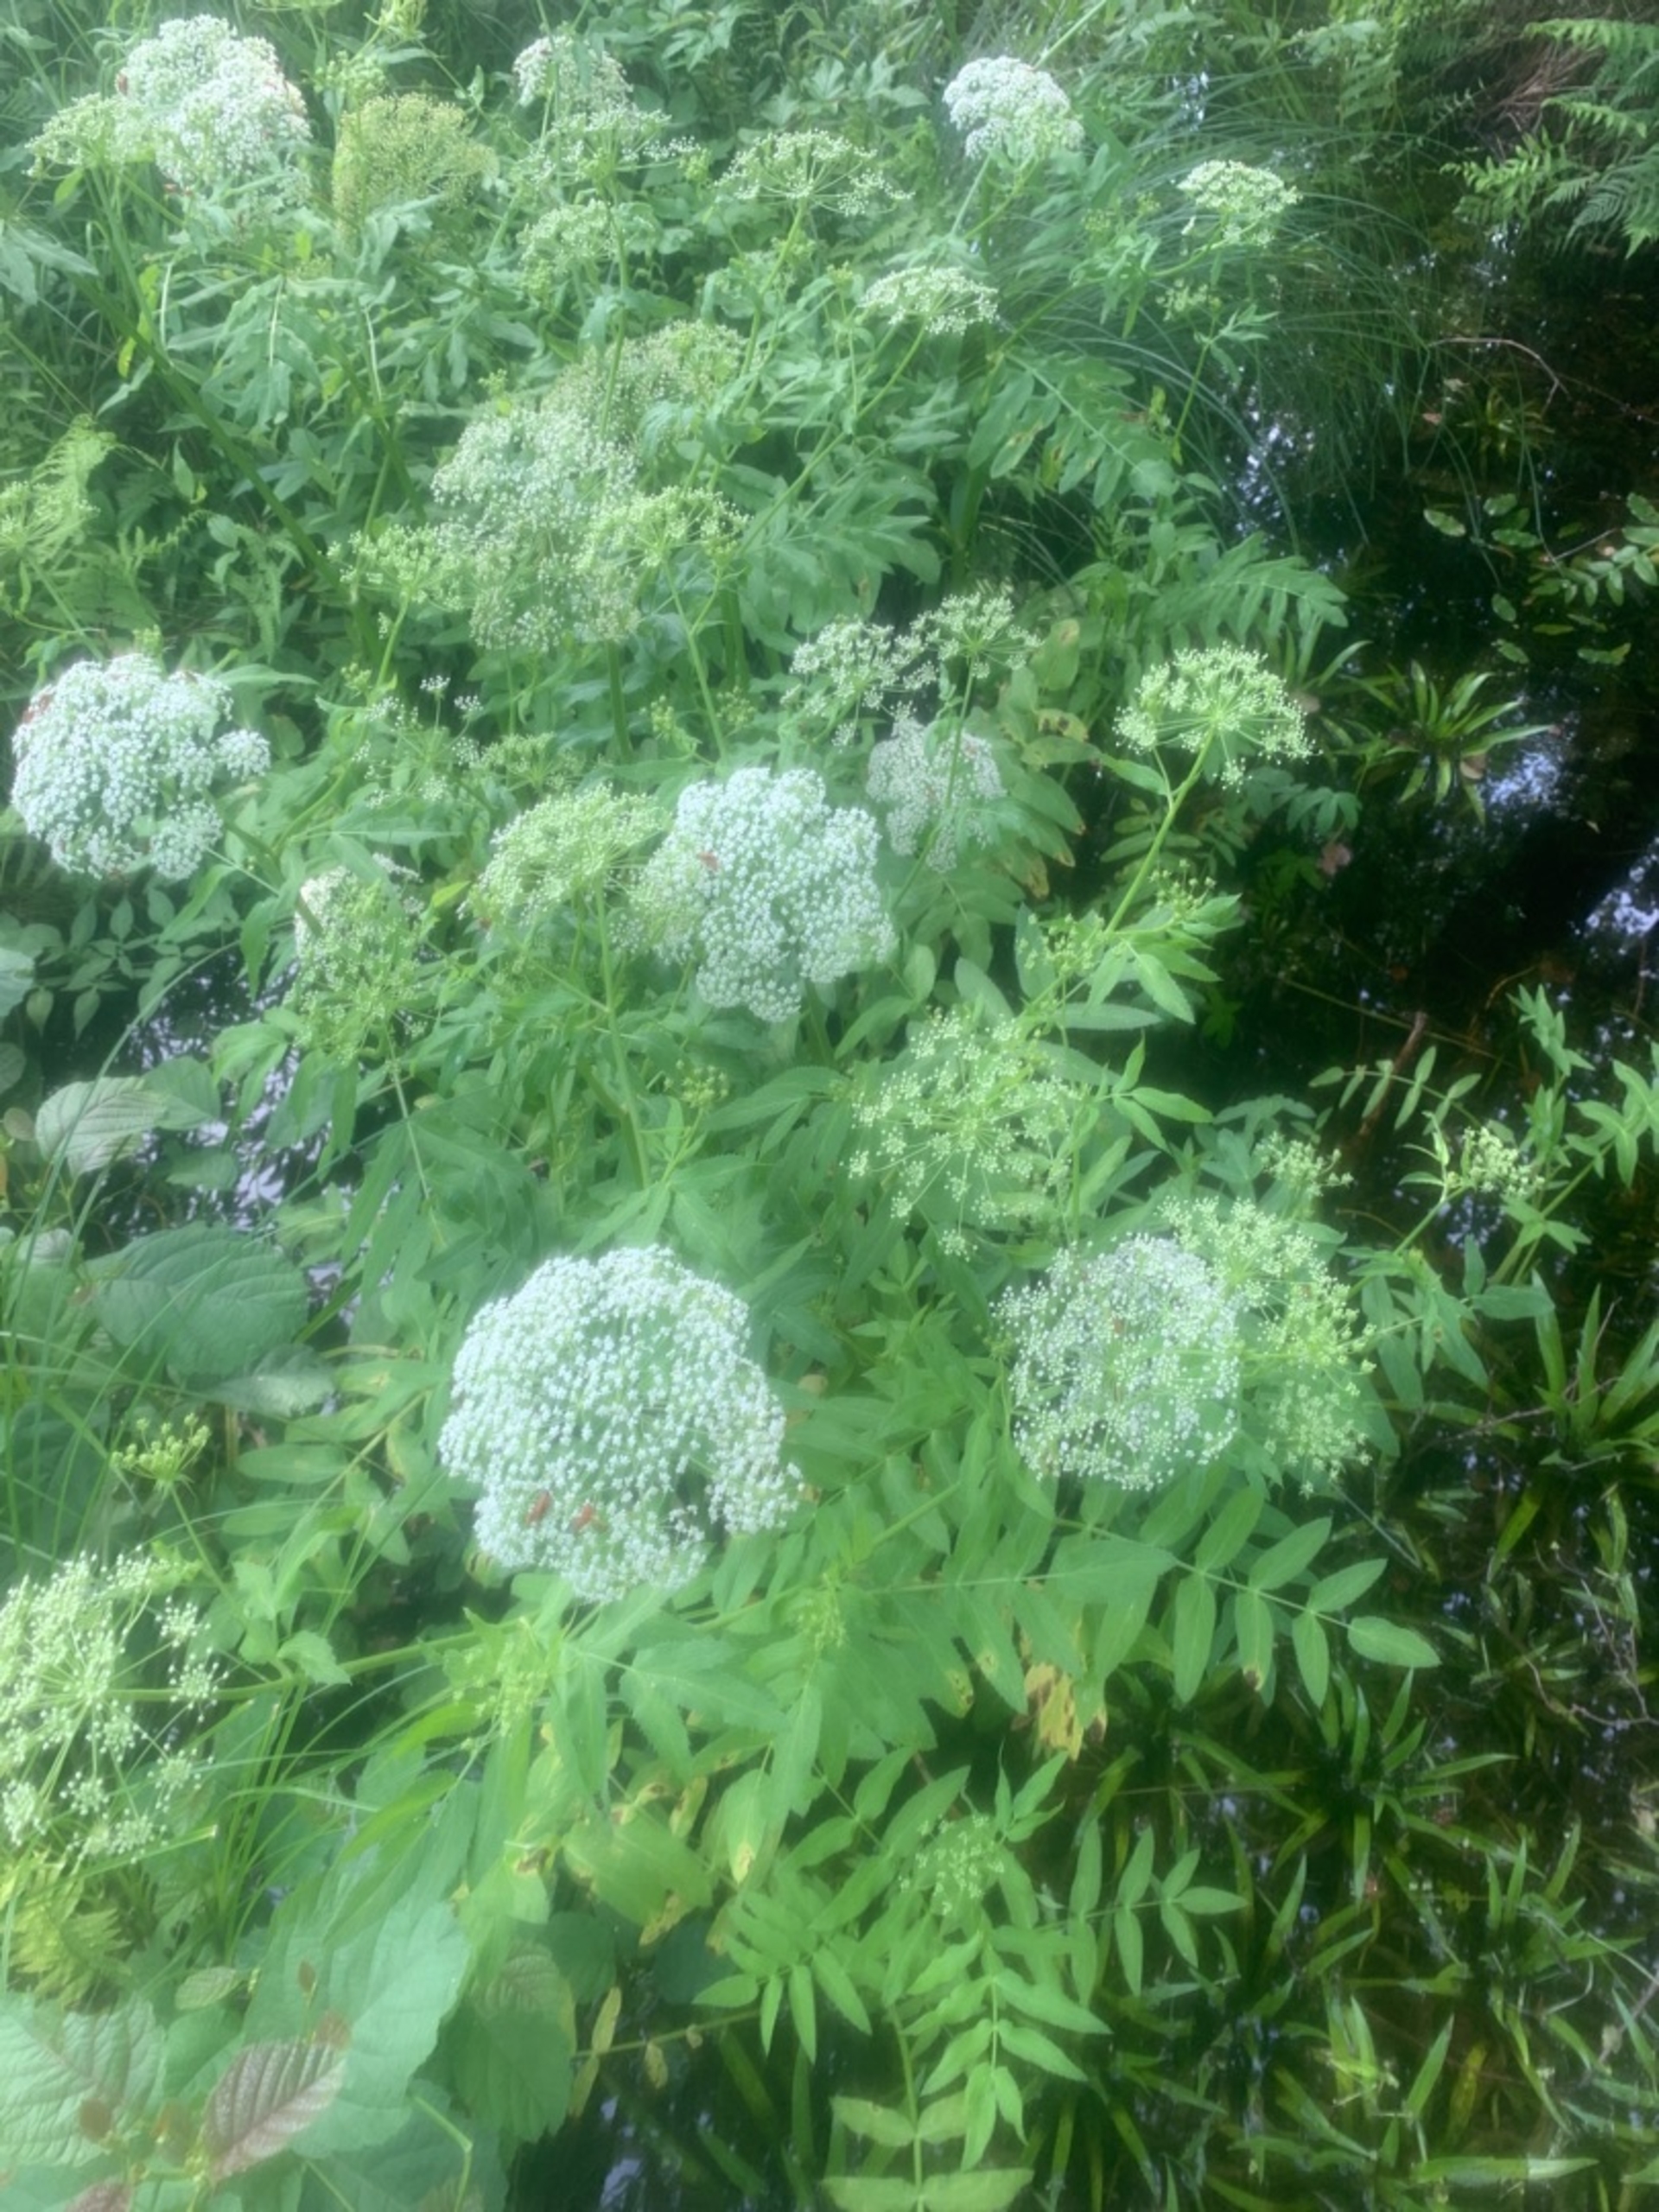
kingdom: Plantae
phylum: Tracheophyta
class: Magnoliopsida
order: Apiales
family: Apiaceae
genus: Sium
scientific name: Sium latifolium
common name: Bredbladet mærke
